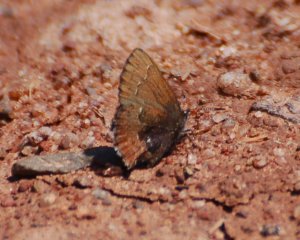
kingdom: Animalia
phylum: Arthropoda
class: Insecta
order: Lepidoptera
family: Lycaenidae
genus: Incisalia
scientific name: Incisalia irioides
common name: Brown Elfin
